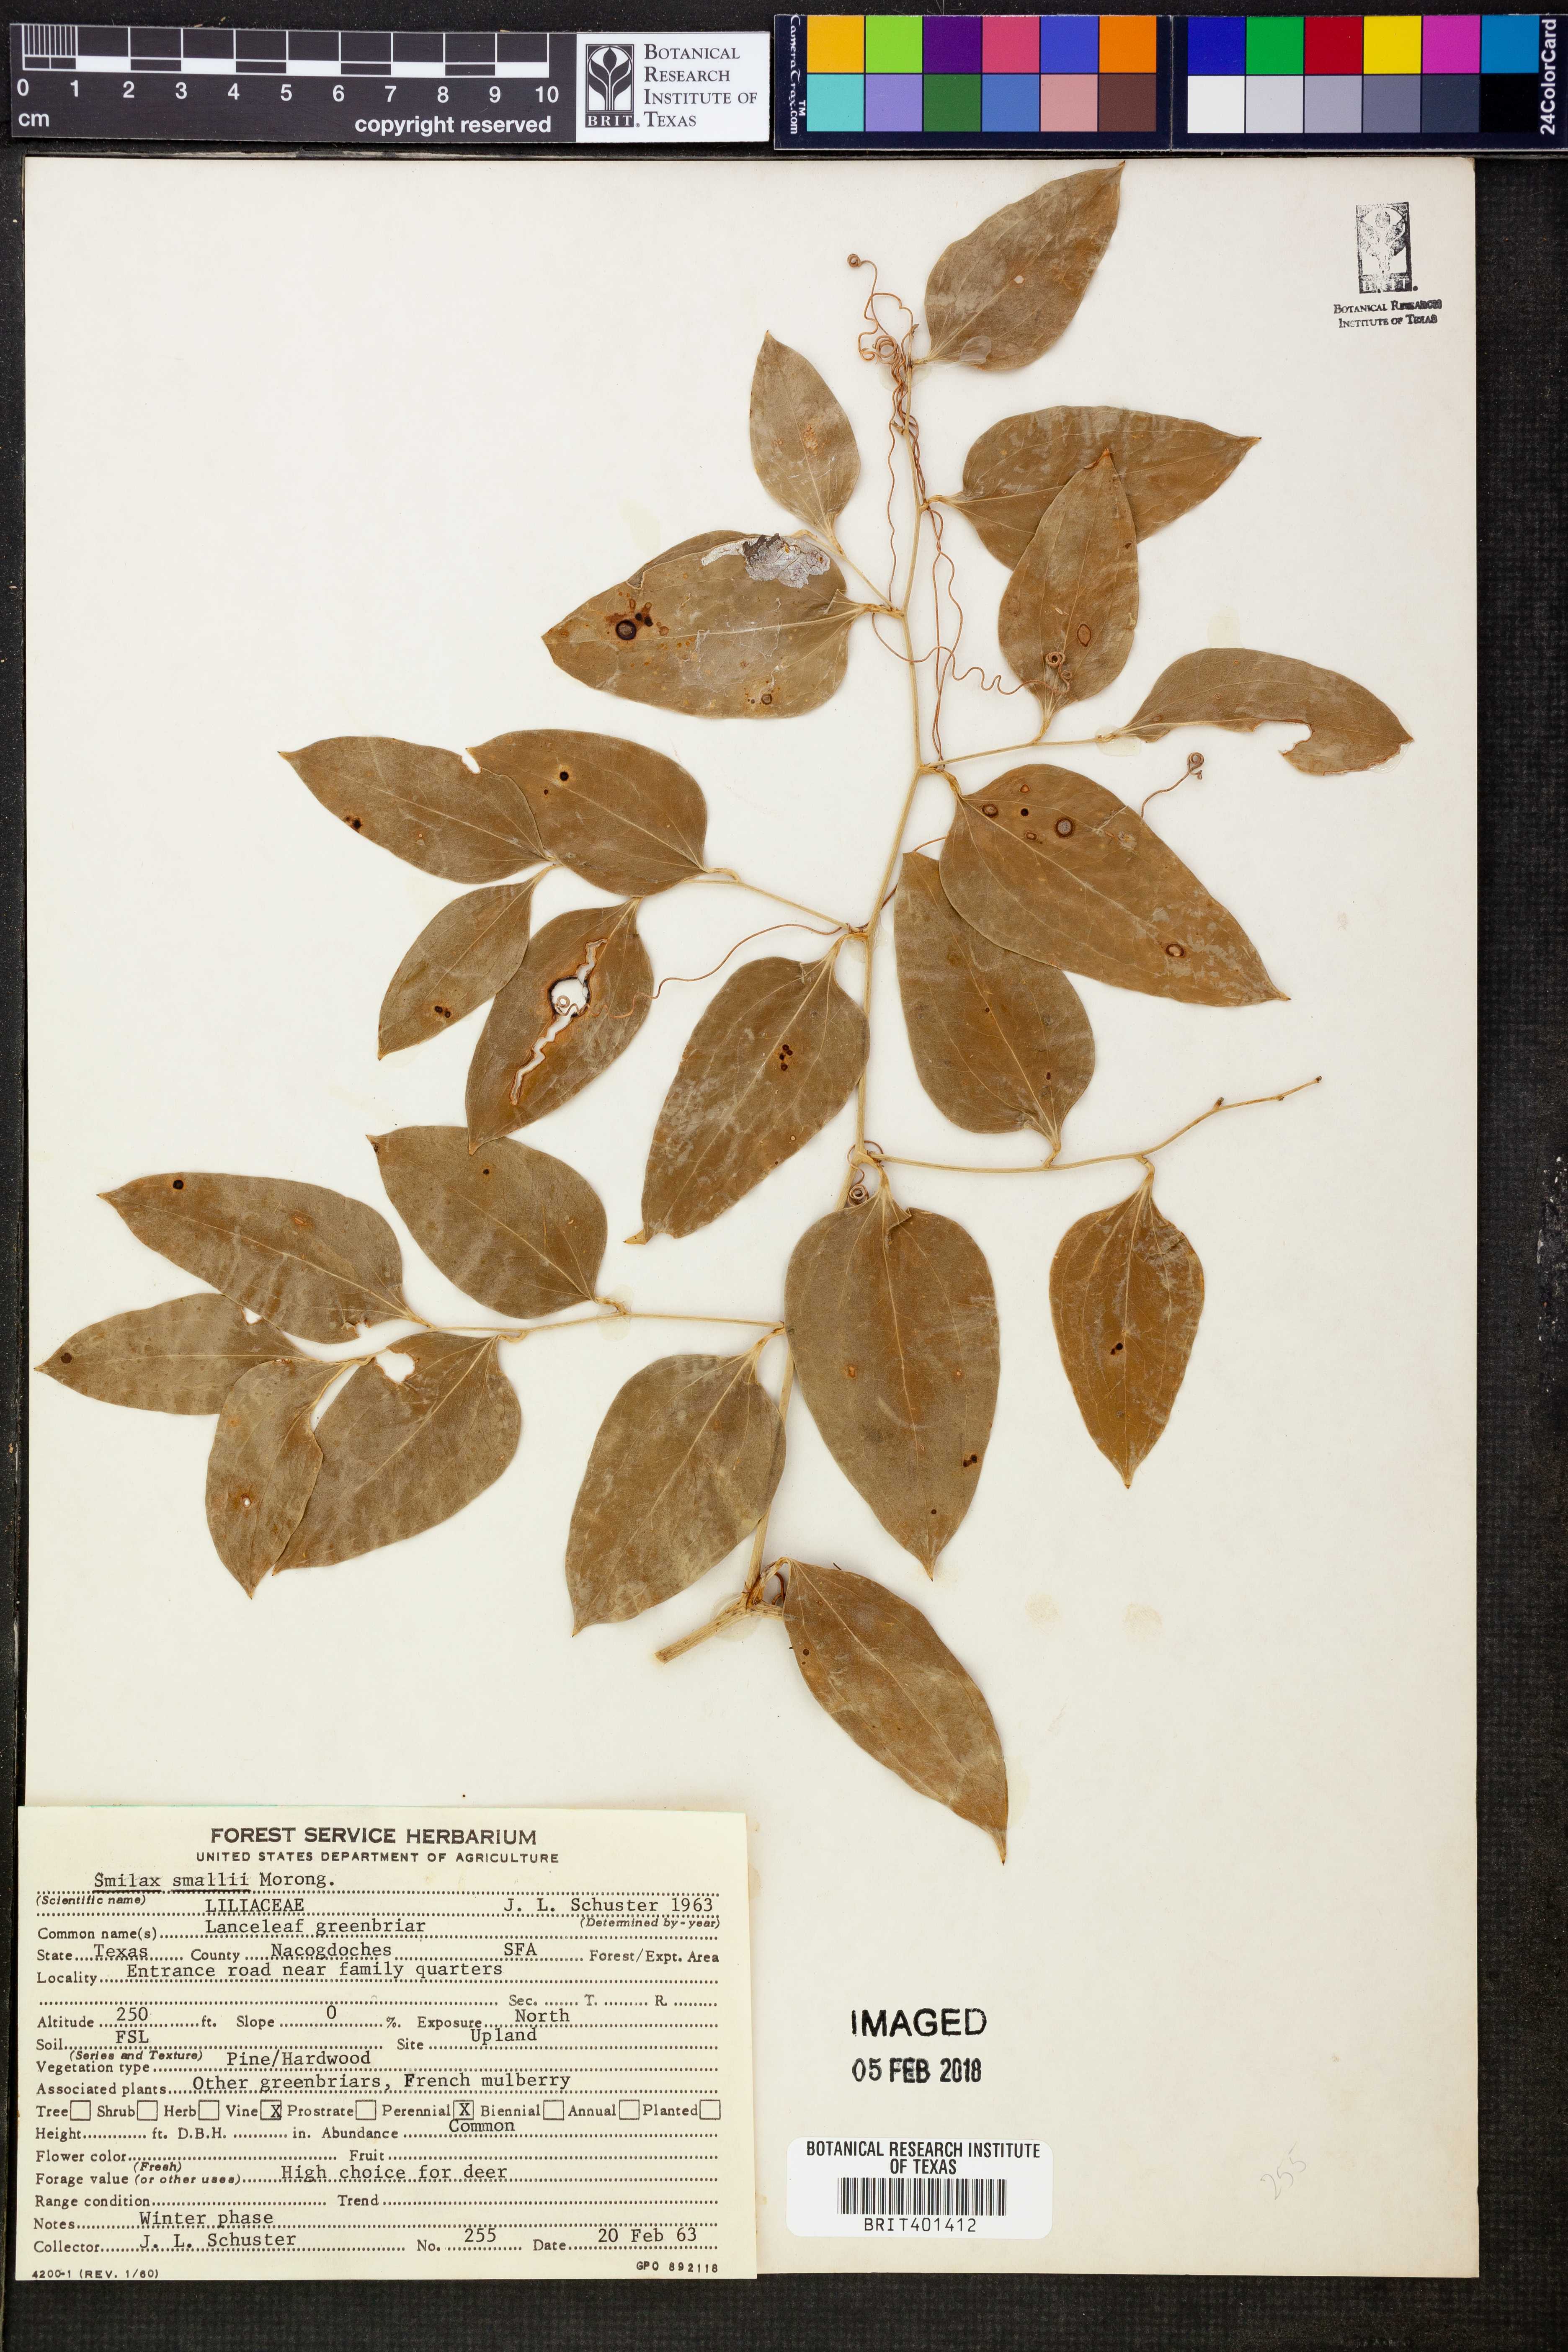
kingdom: Plantae
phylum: Tracheophyta
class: Liliopsida
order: Liliales
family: Smilacaceae
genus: Smilax
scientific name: Smilax maritima
